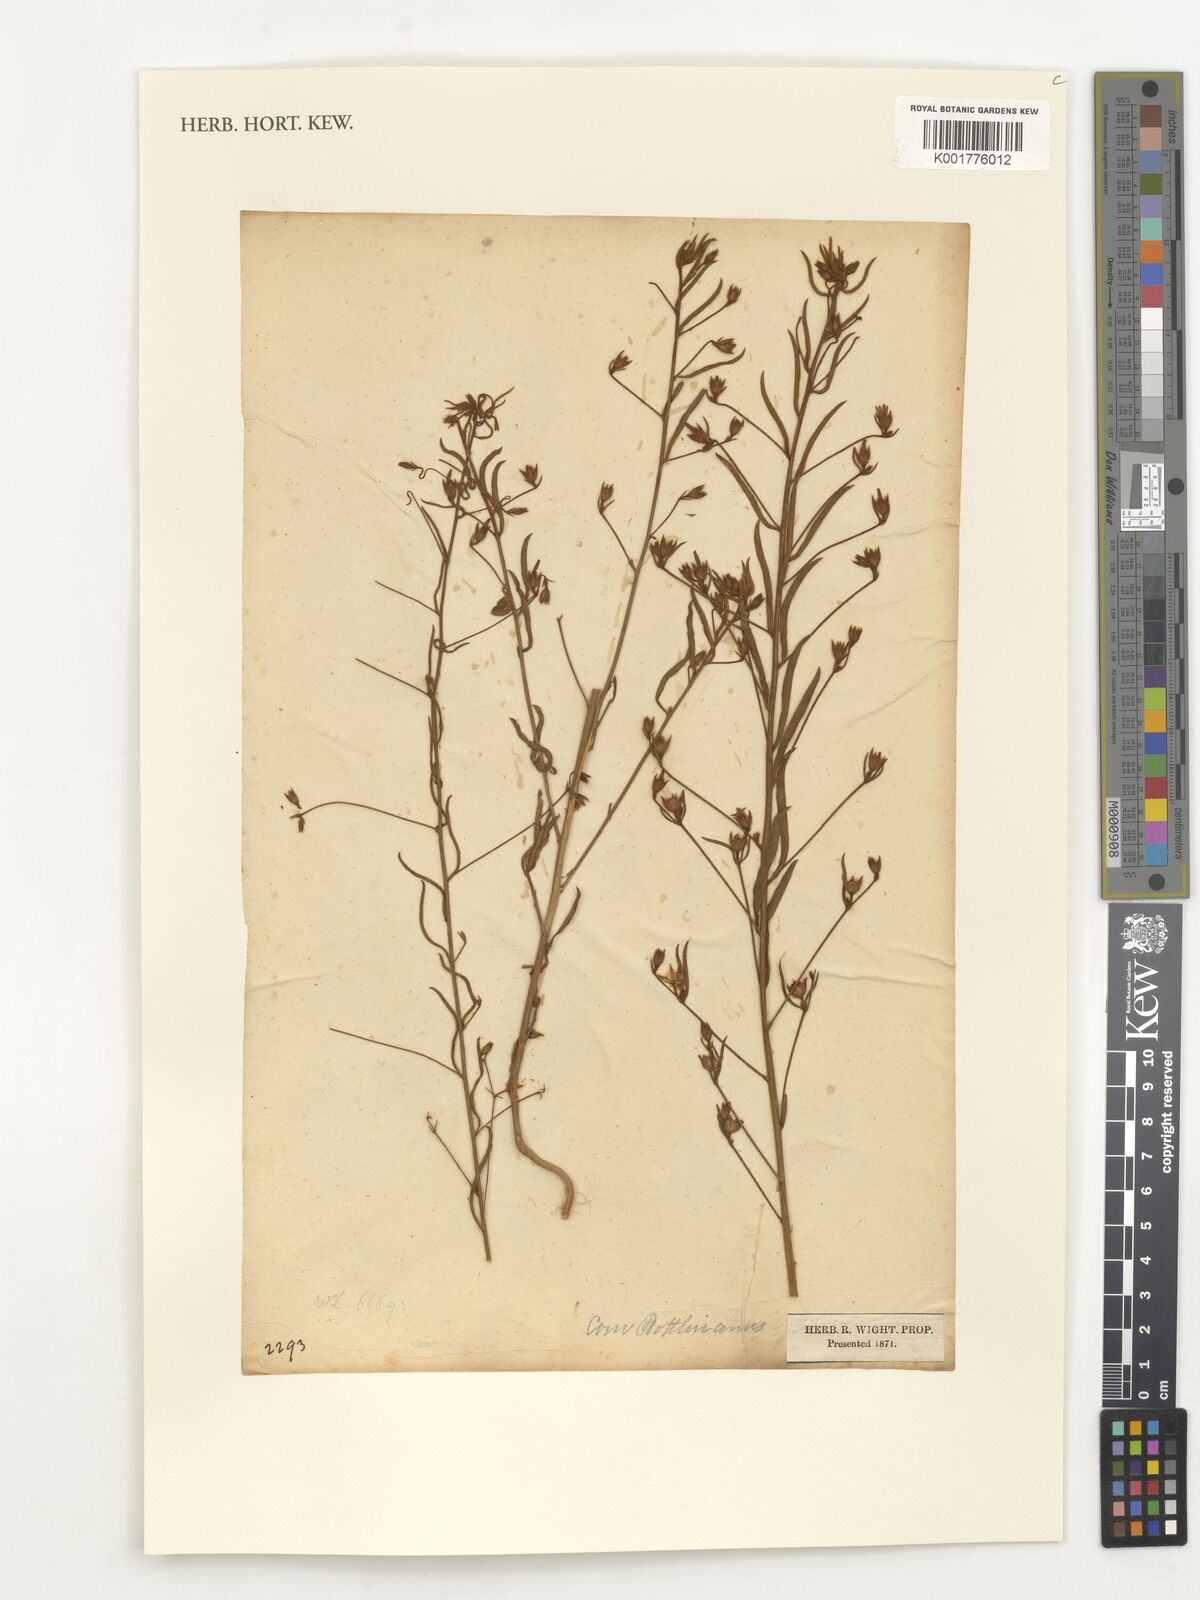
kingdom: Plantae
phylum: Tracheophyta
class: Magnoliopsida
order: Solanales
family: Convolvulaceae
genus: Convolvulus
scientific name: Convolvulus rottlerianus
